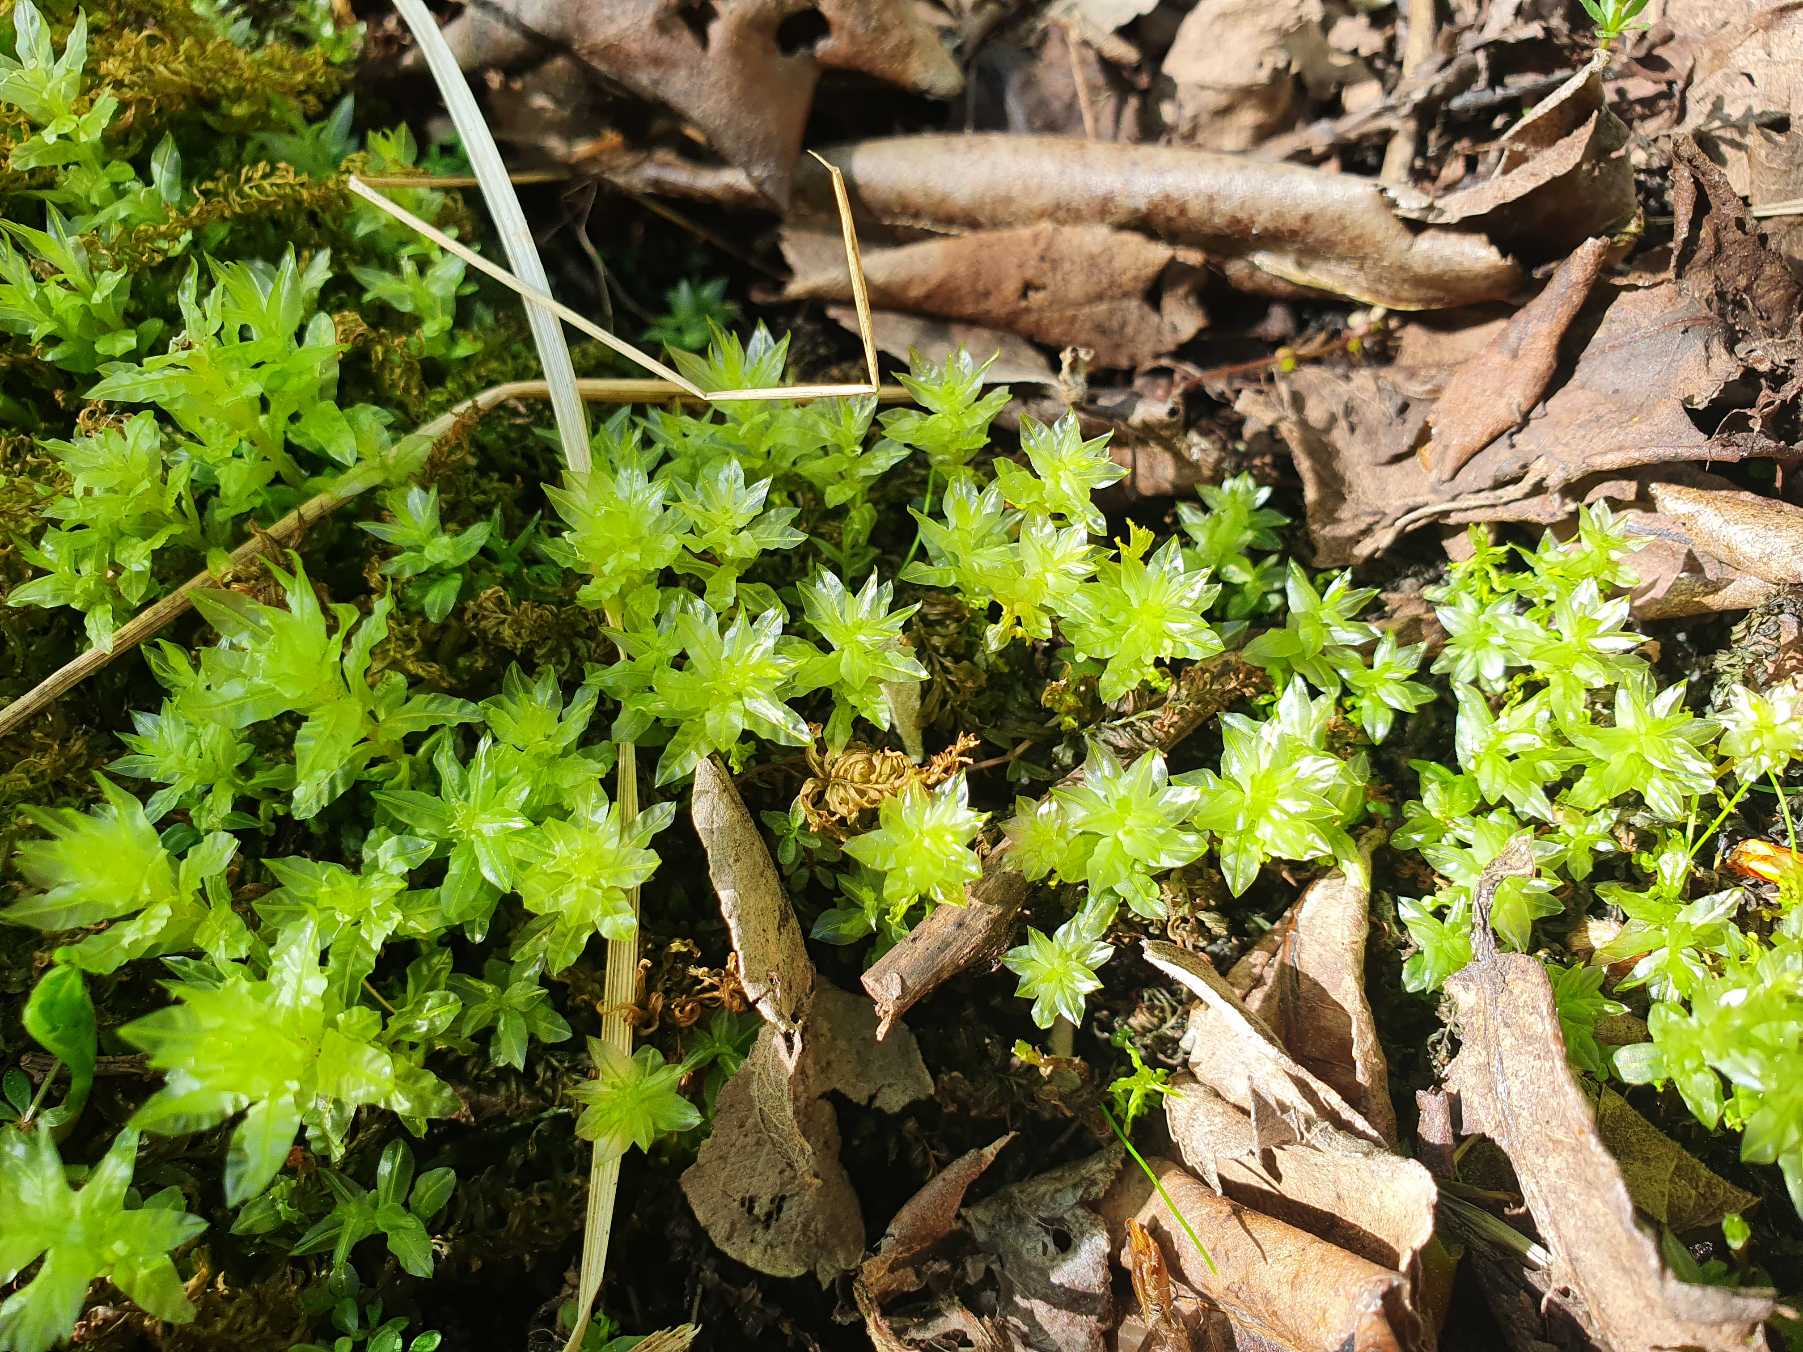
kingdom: Plantae
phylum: Bryophyta
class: Bryopsida
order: Bryales
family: Mniaceae
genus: Plagiomnium
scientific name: Plagiomnium undulatum
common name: Bølget krybstjerne
